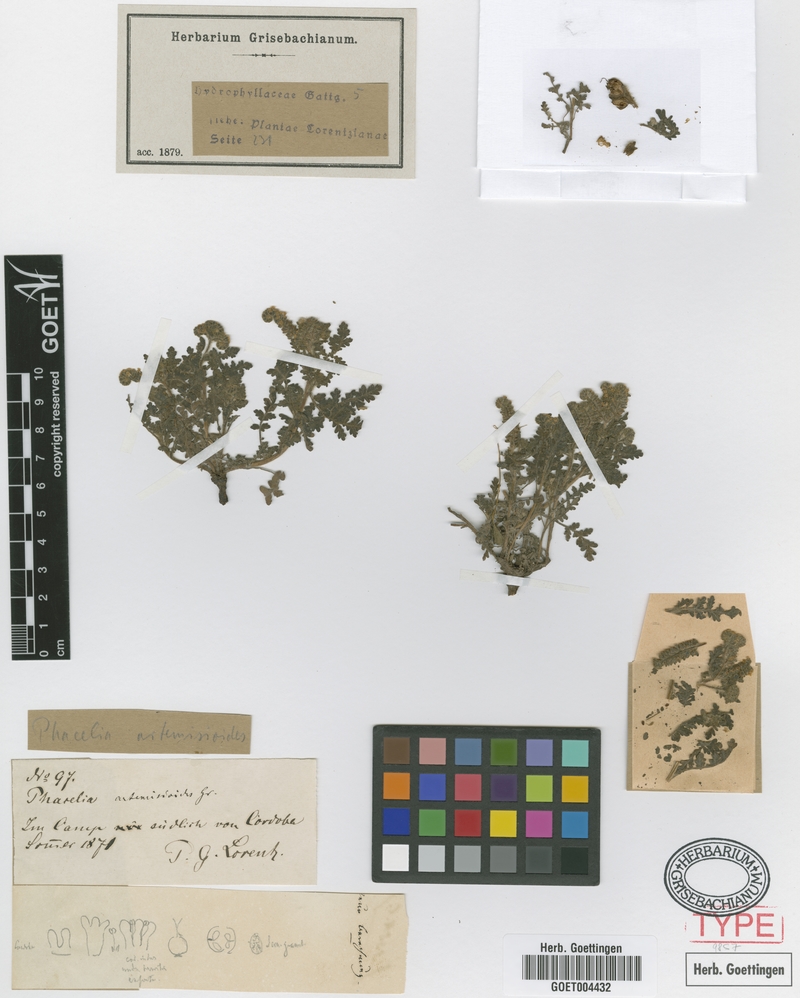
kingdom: Plantae
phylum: Tracheophyta
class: Magnoliopsida
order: Boraginales
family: Hydrophyllaceae
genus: Phacelia
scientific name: Phacelia artemisioides
